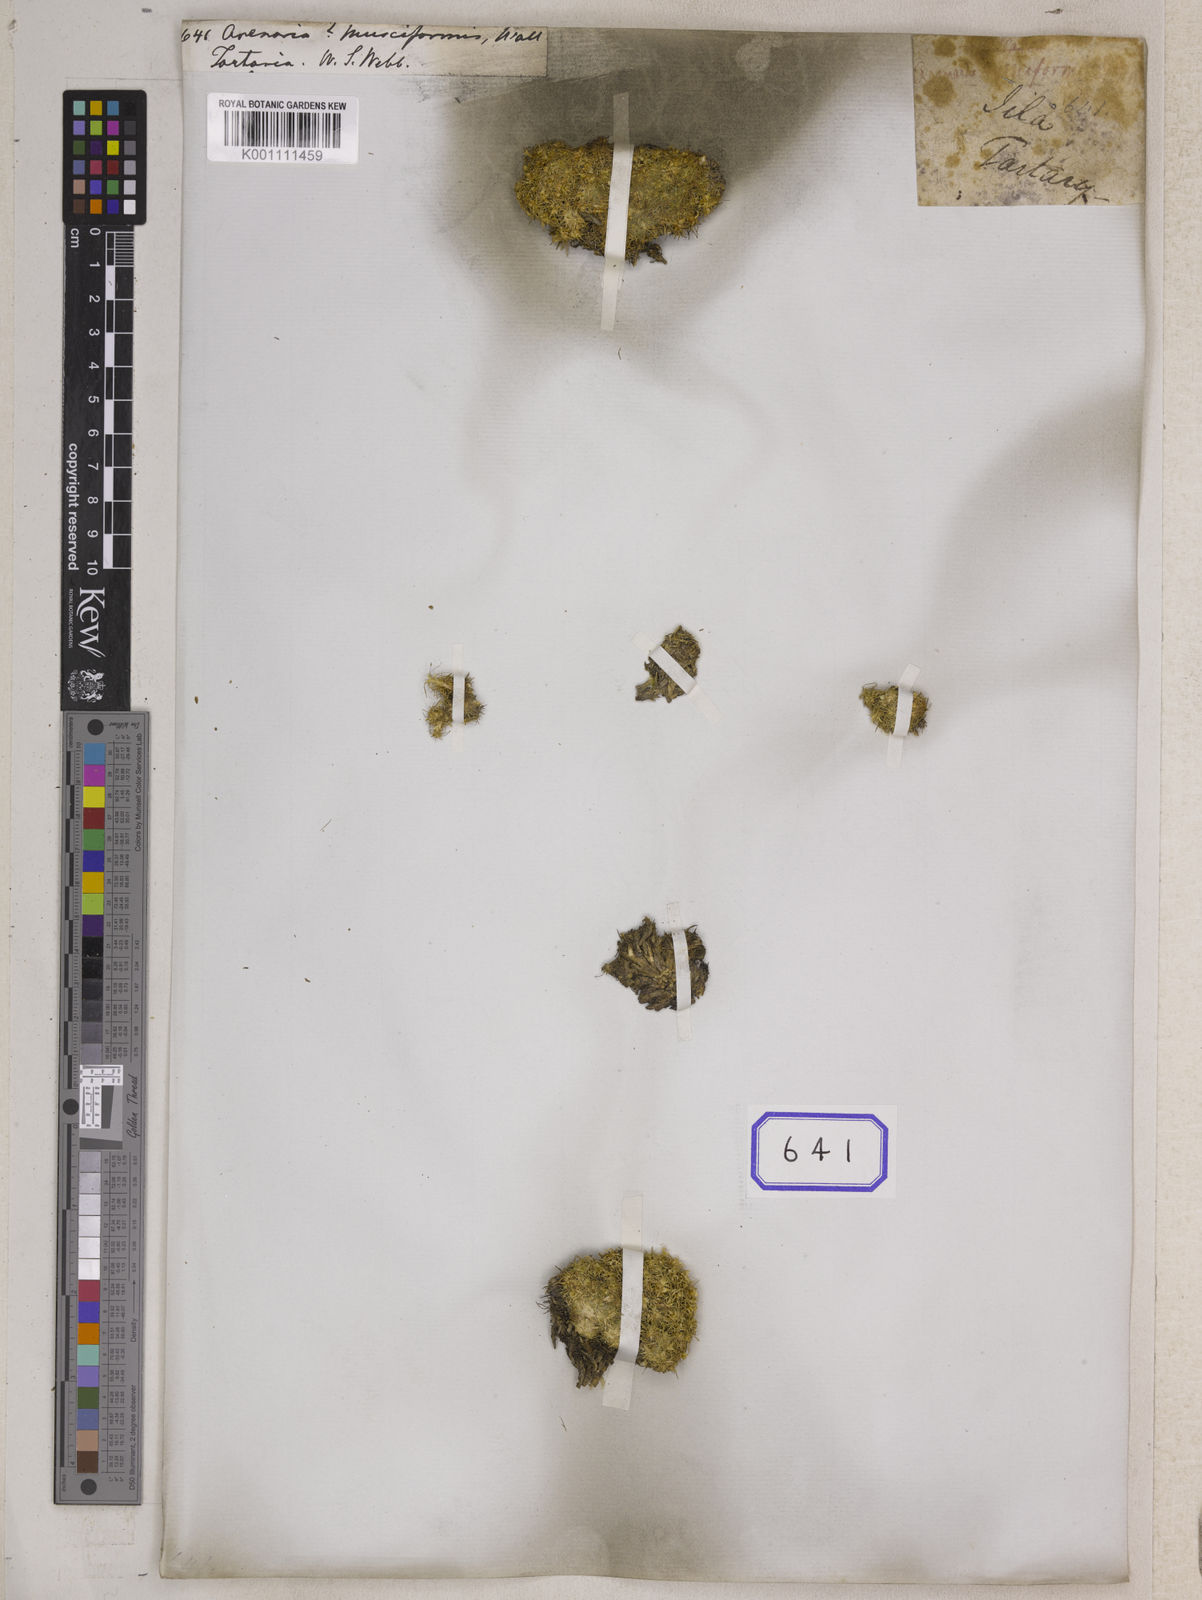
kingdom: Plantae
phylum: Tracheophyta
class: Magnoliopsida
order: Caryophyllales
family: Caryophyllaceae
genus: Arenaria
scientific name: Arenaria
